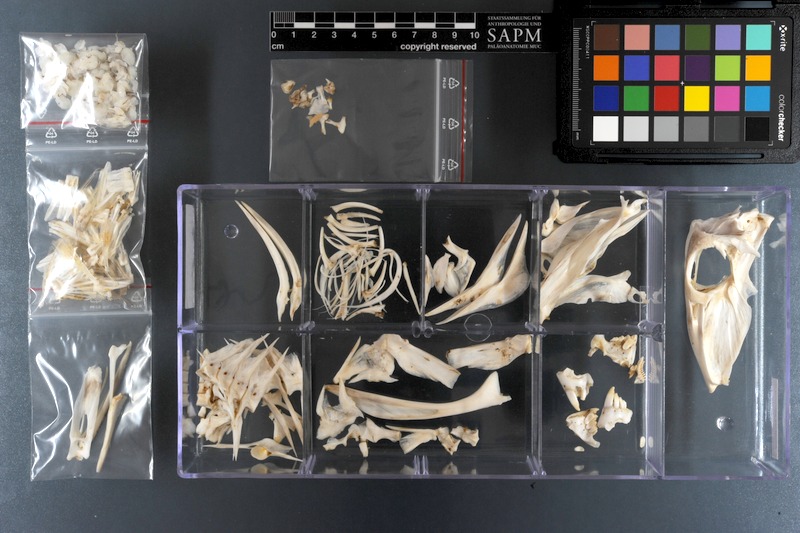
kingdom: Animalia
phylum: Chordata
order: Tetraodontiformes
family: Balistidae
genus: Abalistes
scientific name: Abalistes stellatus
